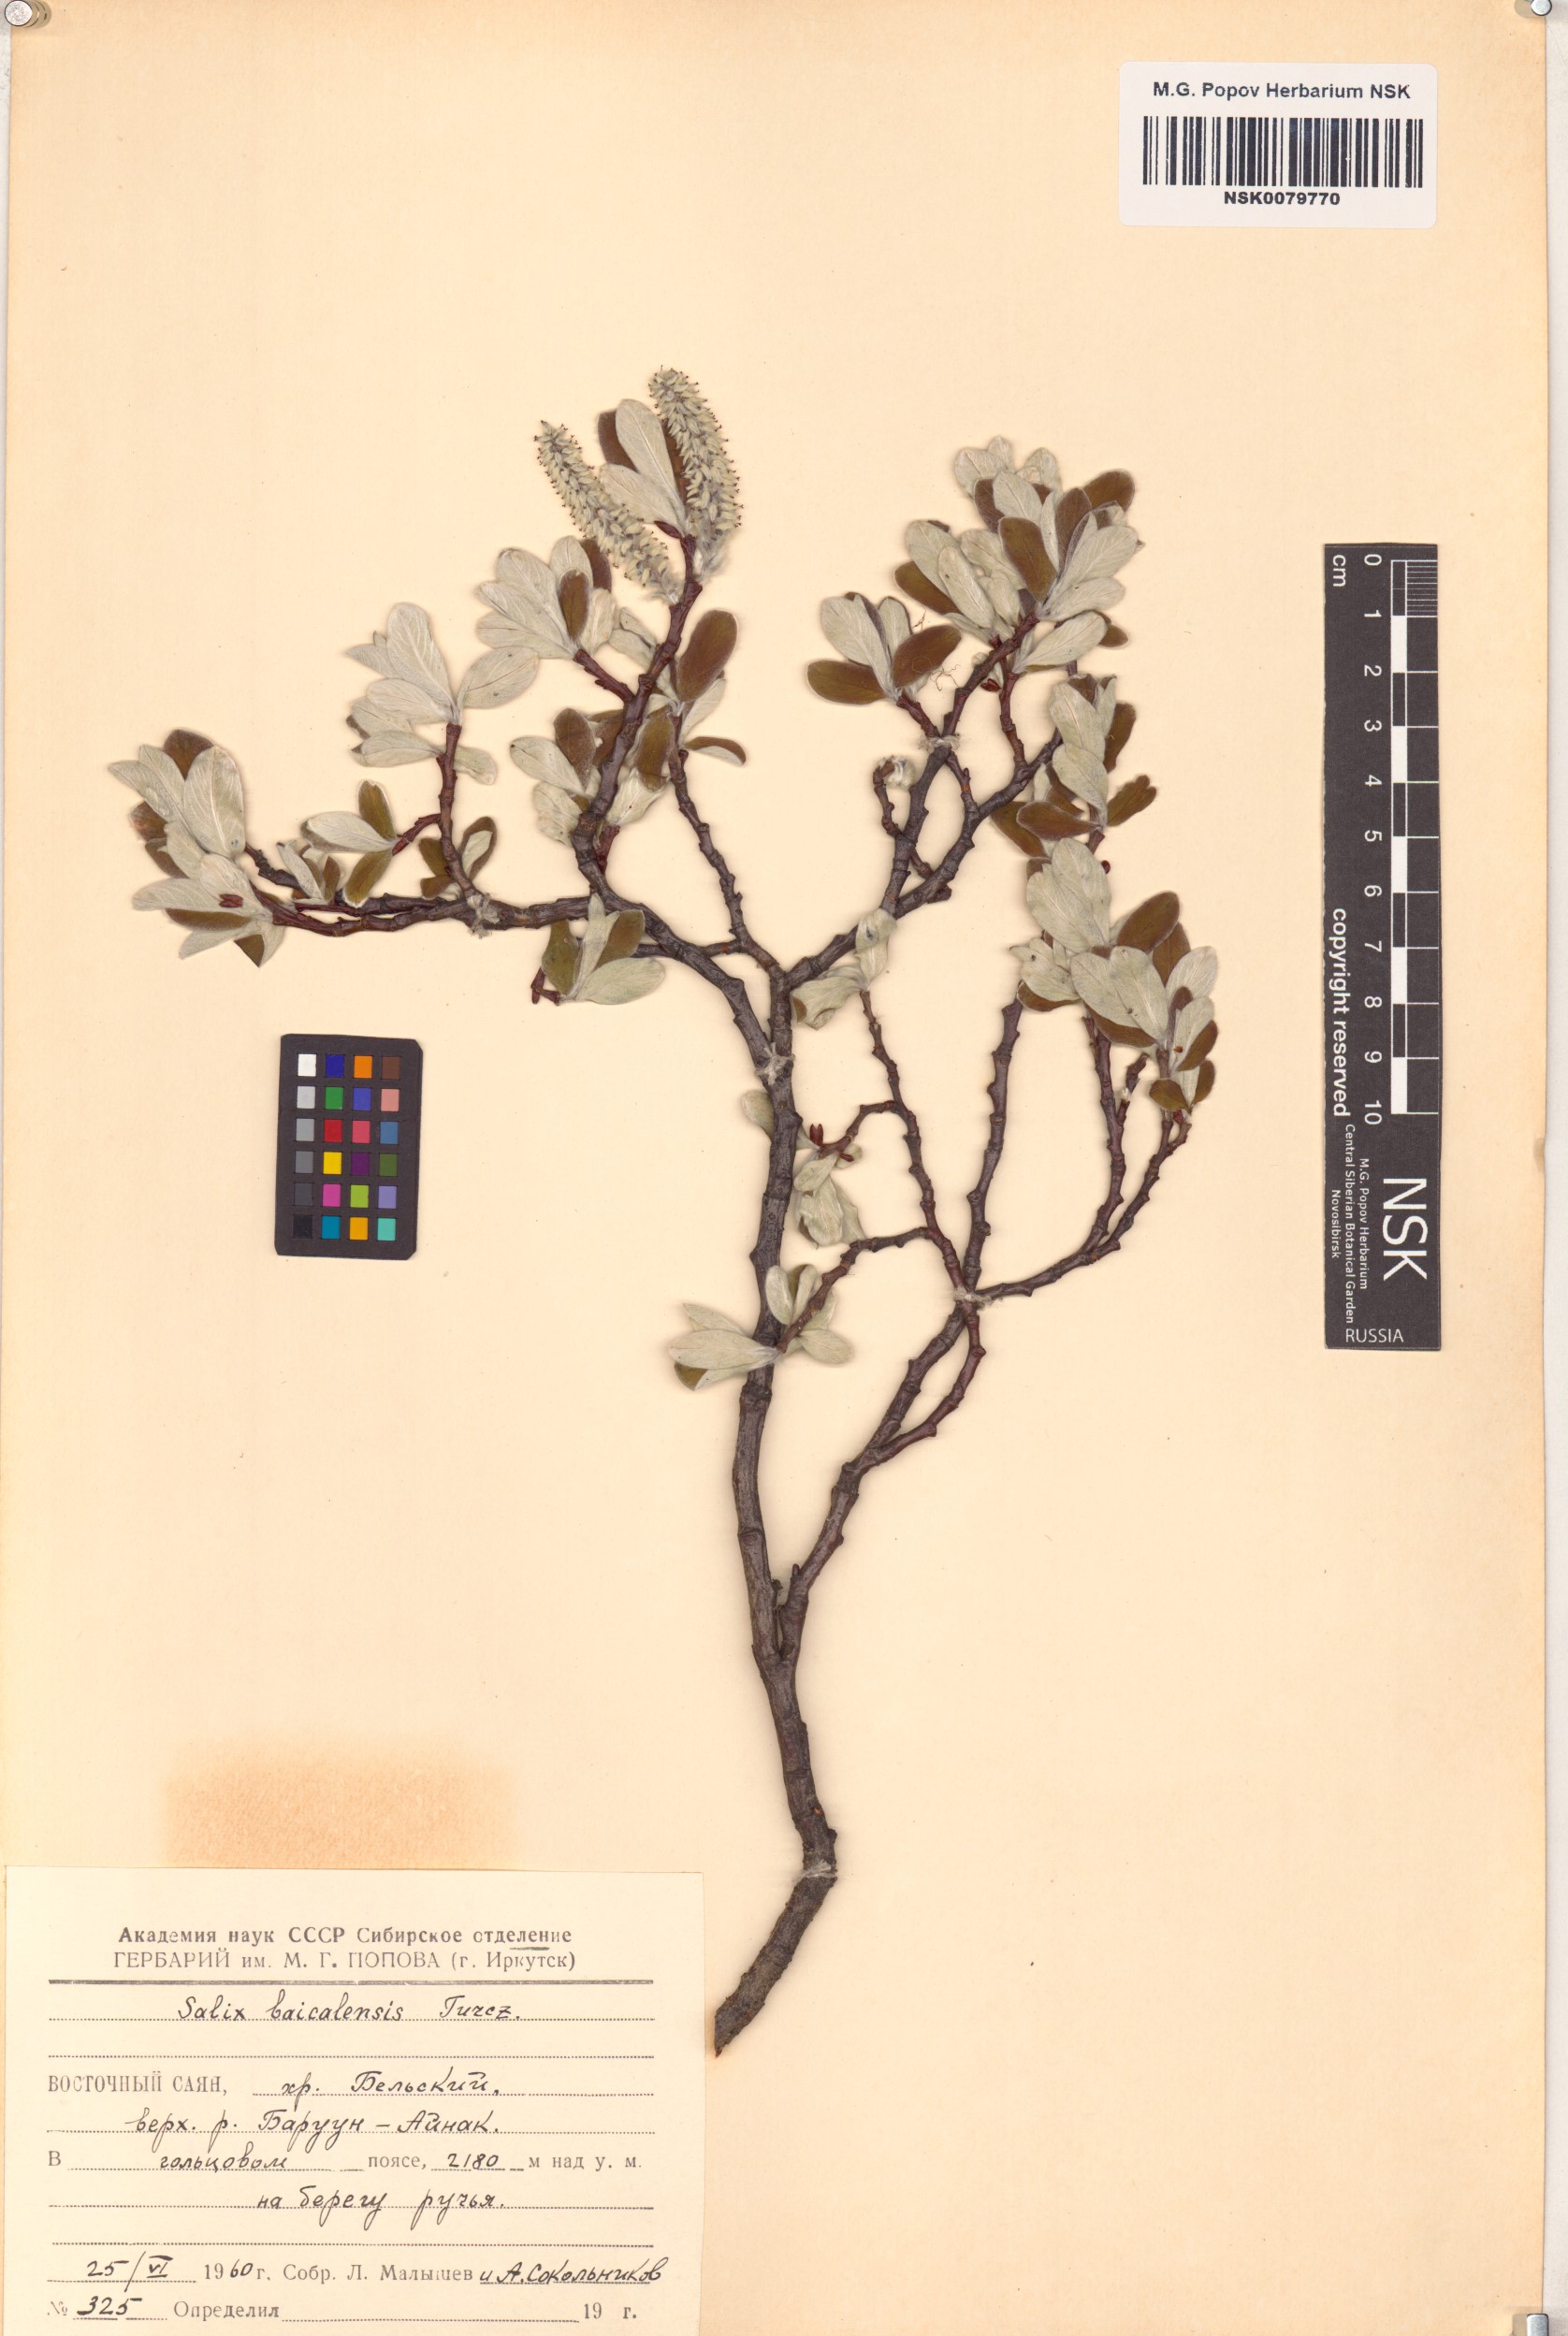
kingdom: Plantae
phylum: Tracheophyta
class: Magnoliopsida
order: Malpighiales
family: Salicaceae
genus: Salix
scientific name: Salix krylovii
